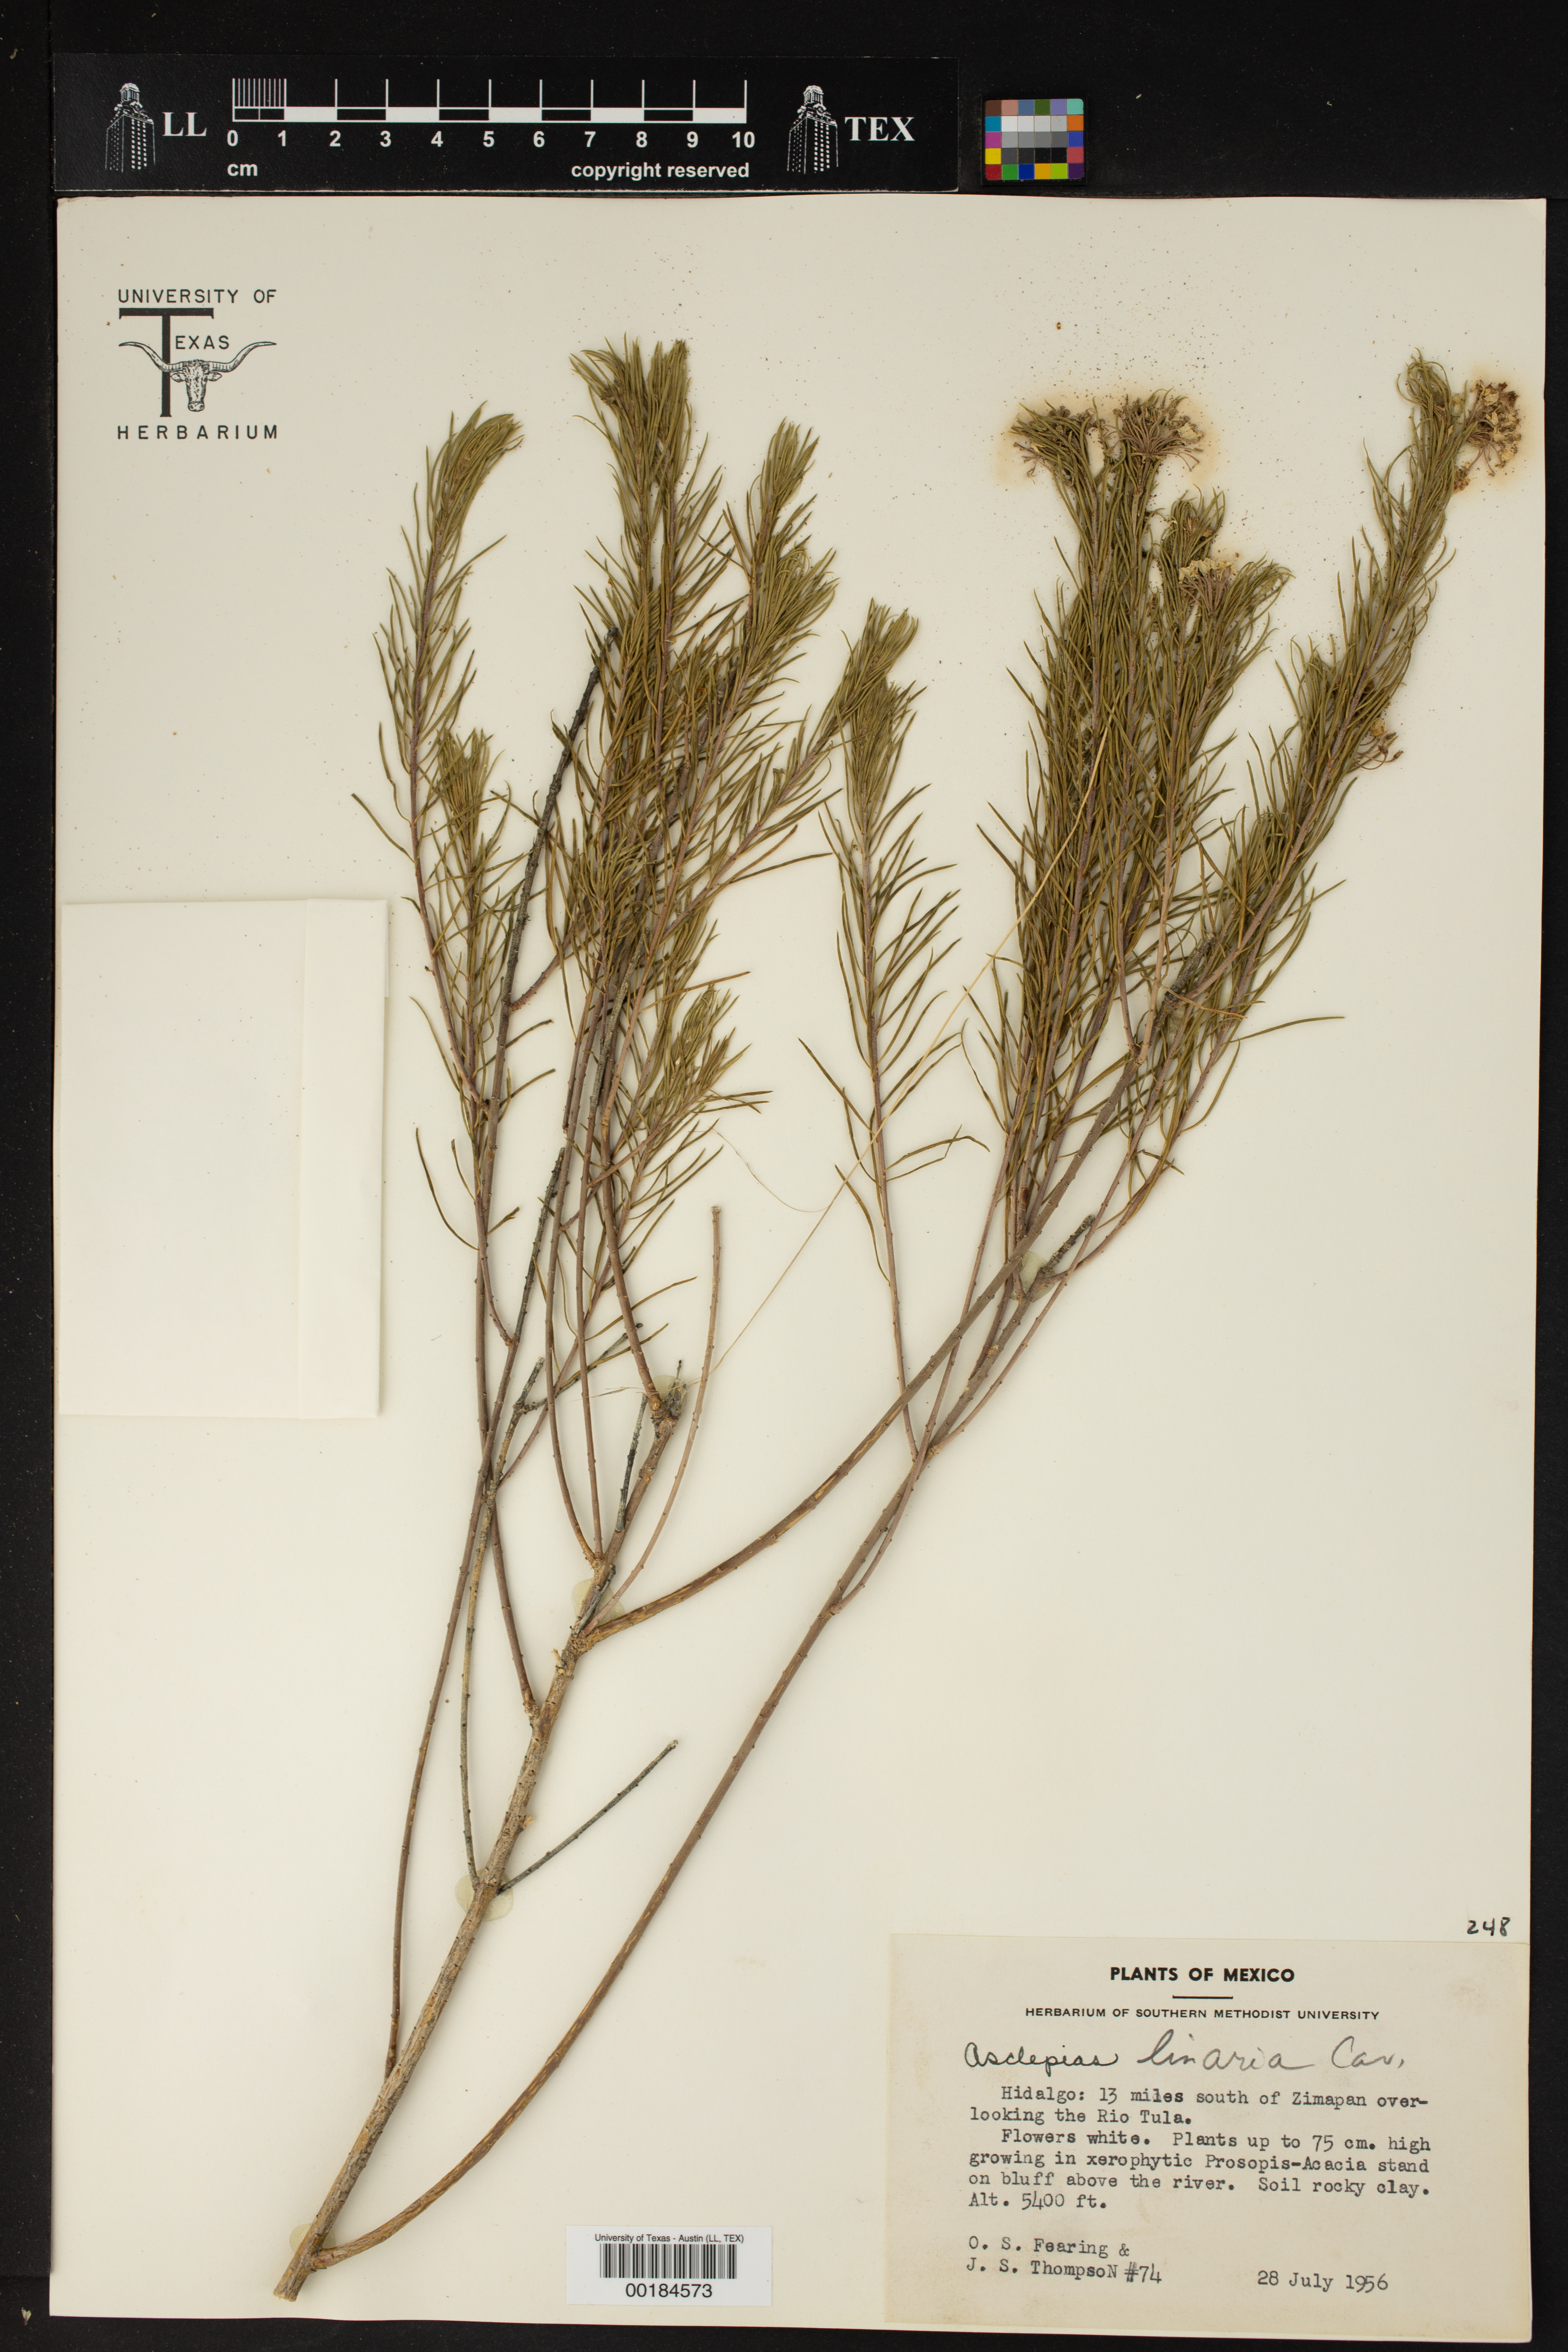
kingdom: Plantae
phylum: Tracheophyta
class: Magnoliopsida
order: Gentianales
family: Apocynaceae
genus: Asclepias
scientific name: Asclepias linaria
